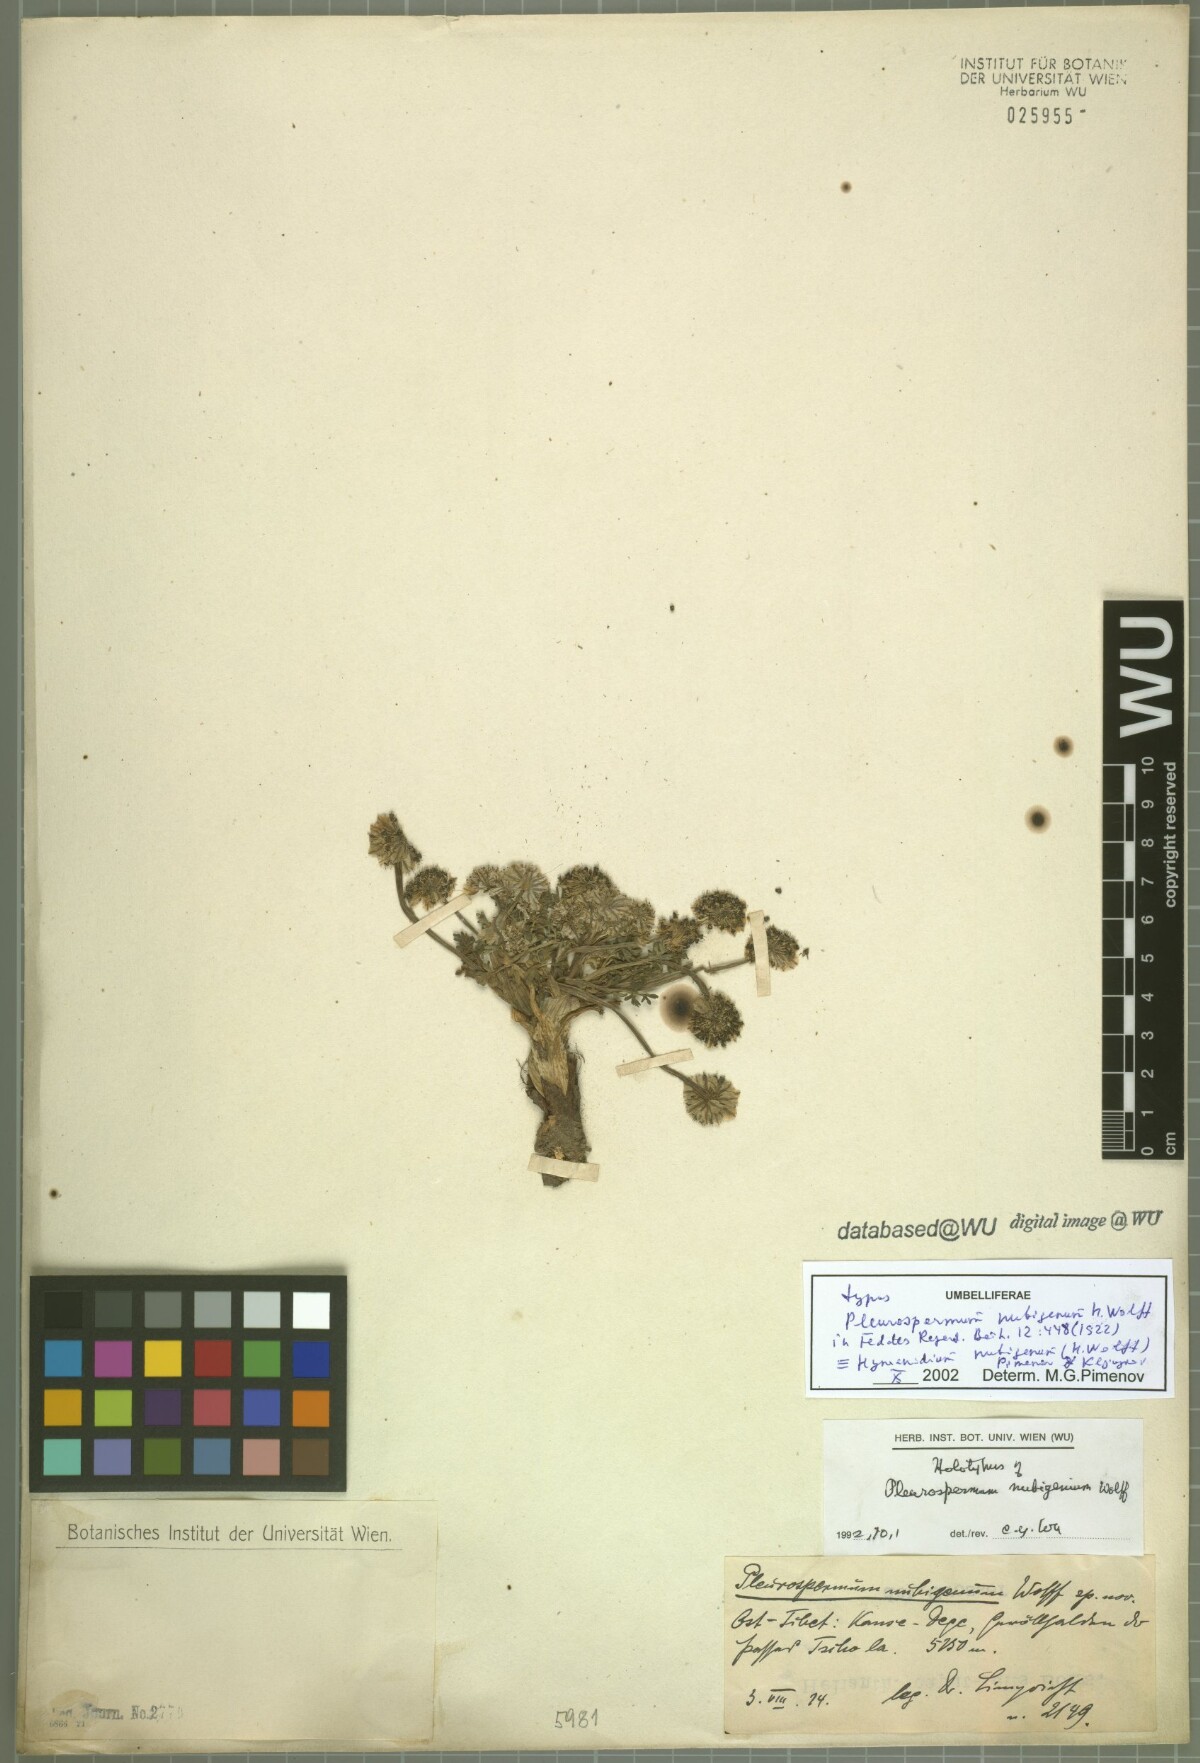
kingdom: Plantae
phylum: Tracheophyta
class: Magnoliopsida
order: Apiales
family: Apiaceae
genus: Hymenidium
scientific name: Hymenidium nubigenum
